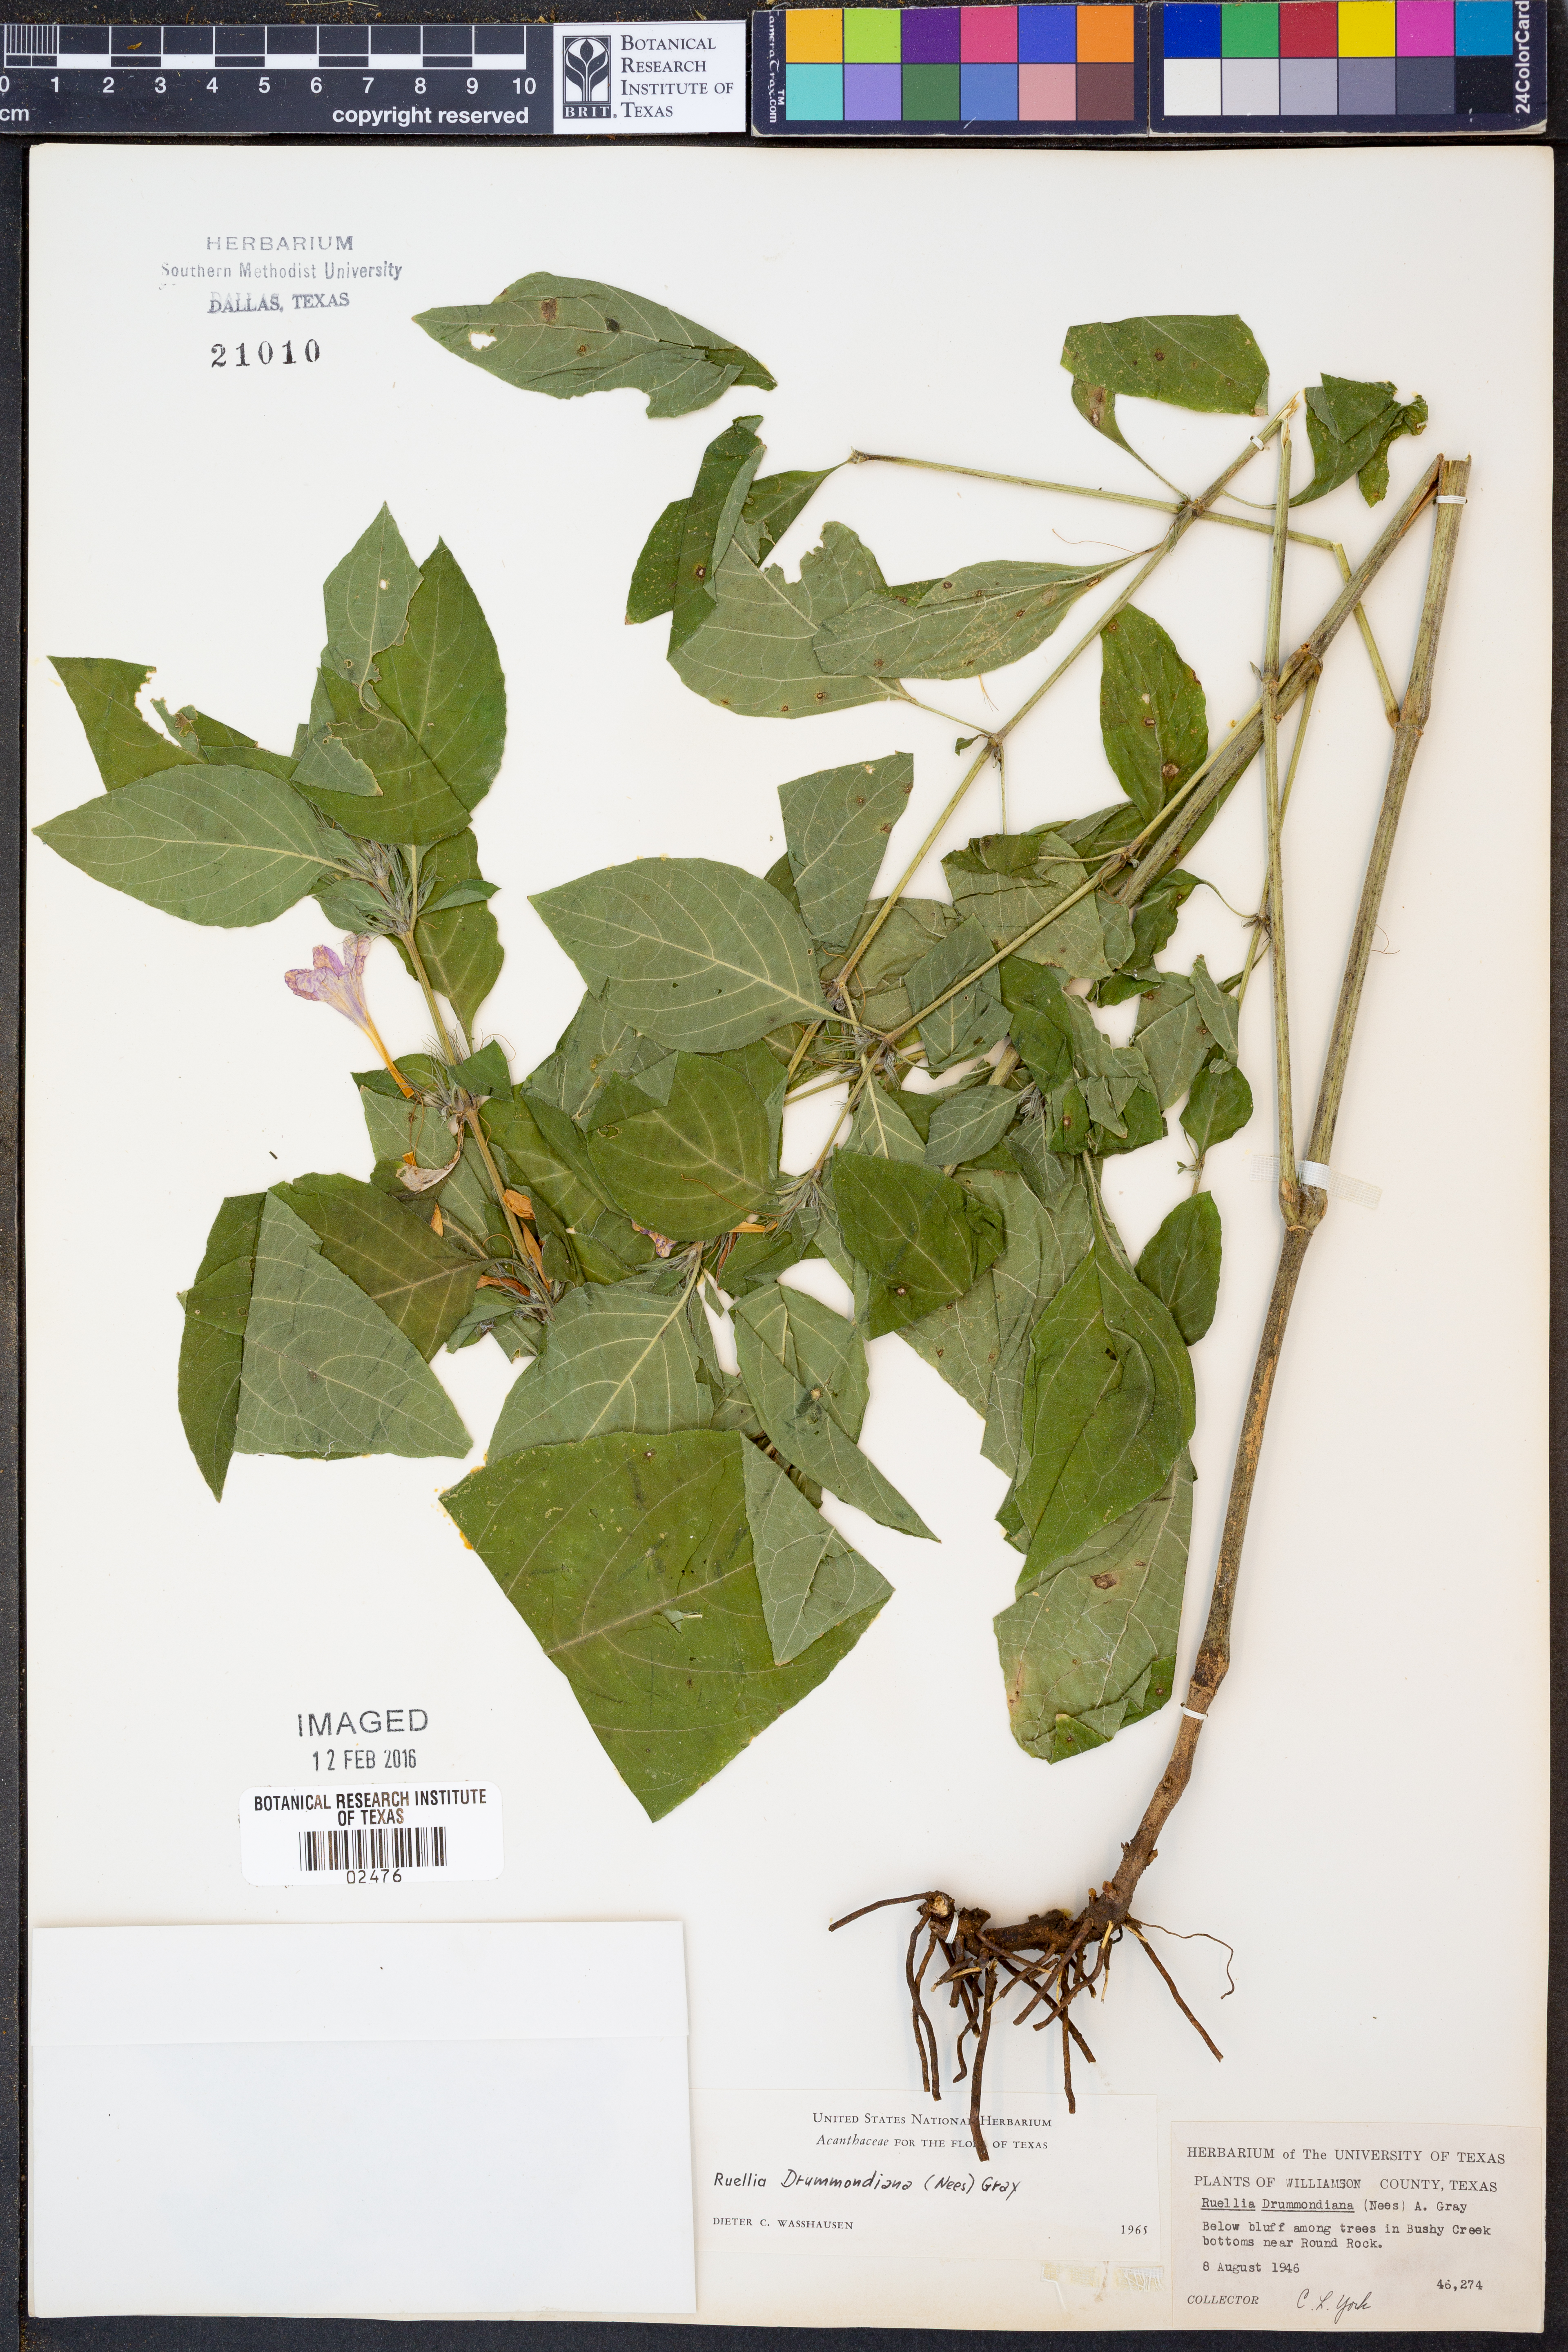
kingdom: Plantae
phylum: Tracheophyta
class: Magnoliopsida
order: Lamiales
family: Acanthaceae
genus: Ruellia
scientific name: Ruellia drummondiana
